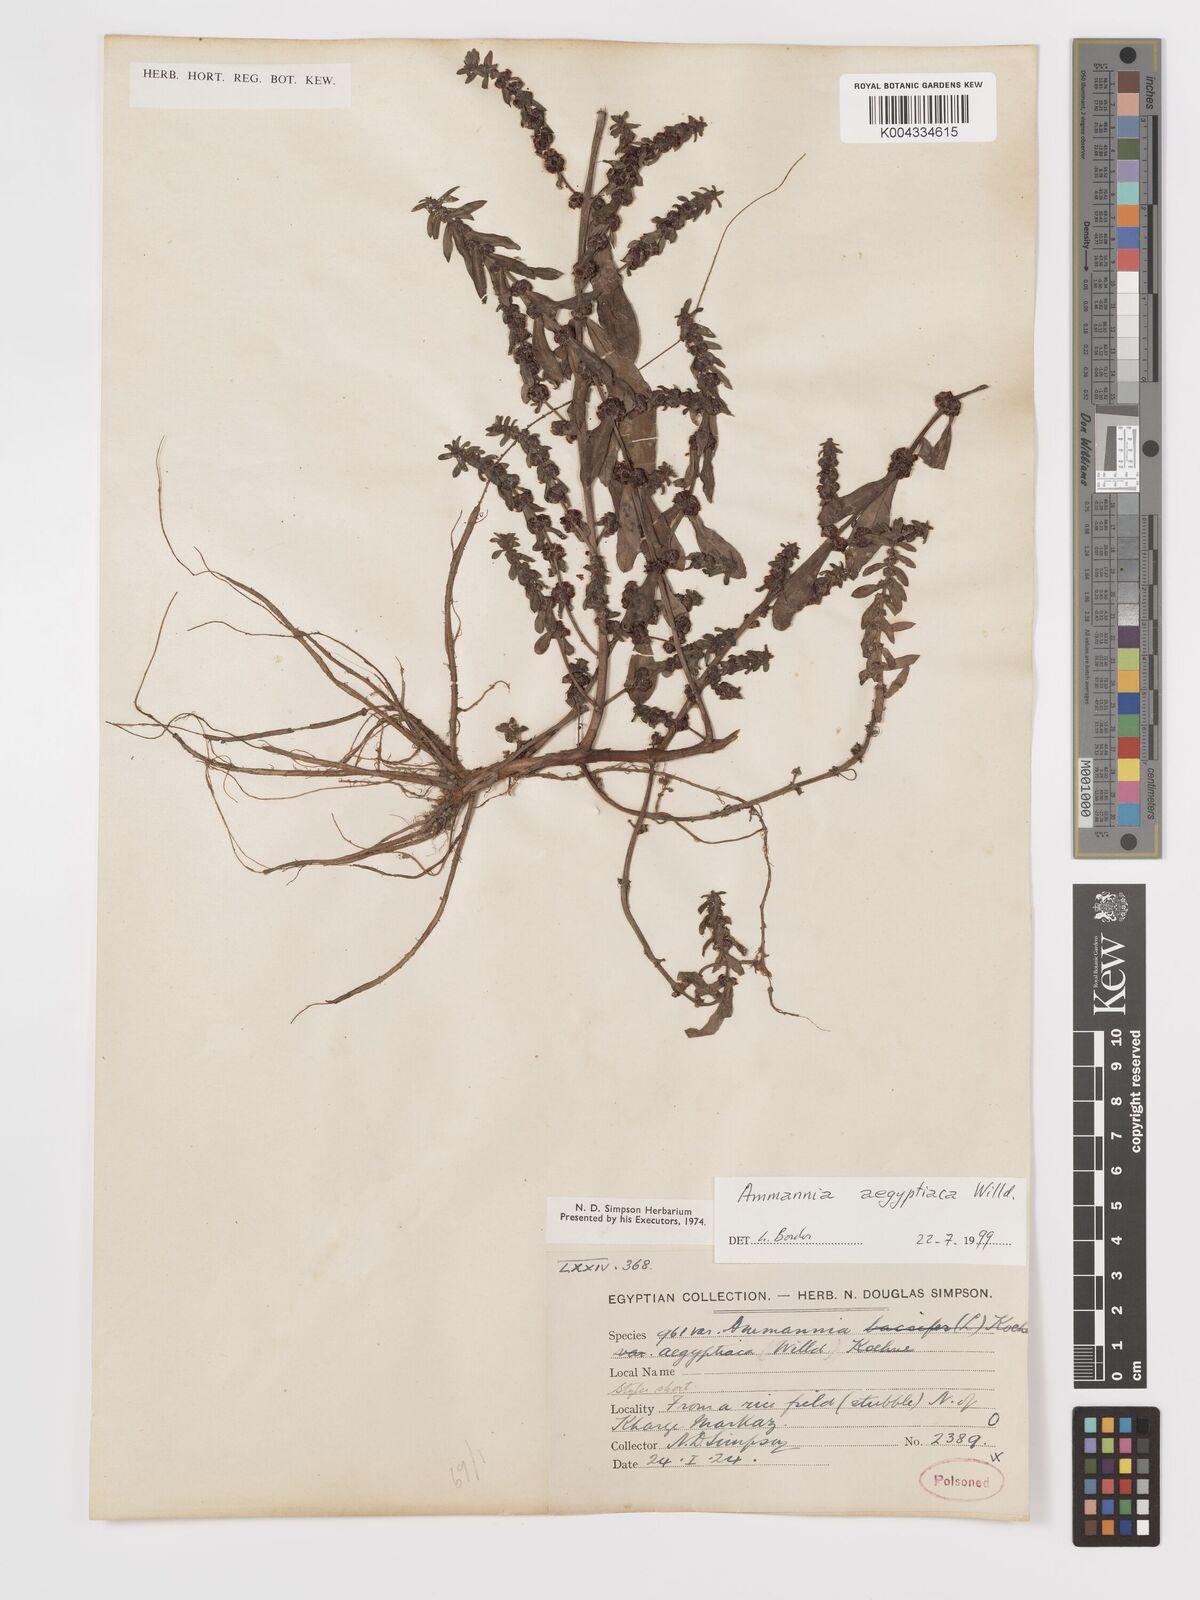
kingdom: Plantae
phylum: Tracheophyta
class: Magnoliopsida
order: Myrtales
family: Lythraceae
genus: Ammannia
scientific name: Ammannia
